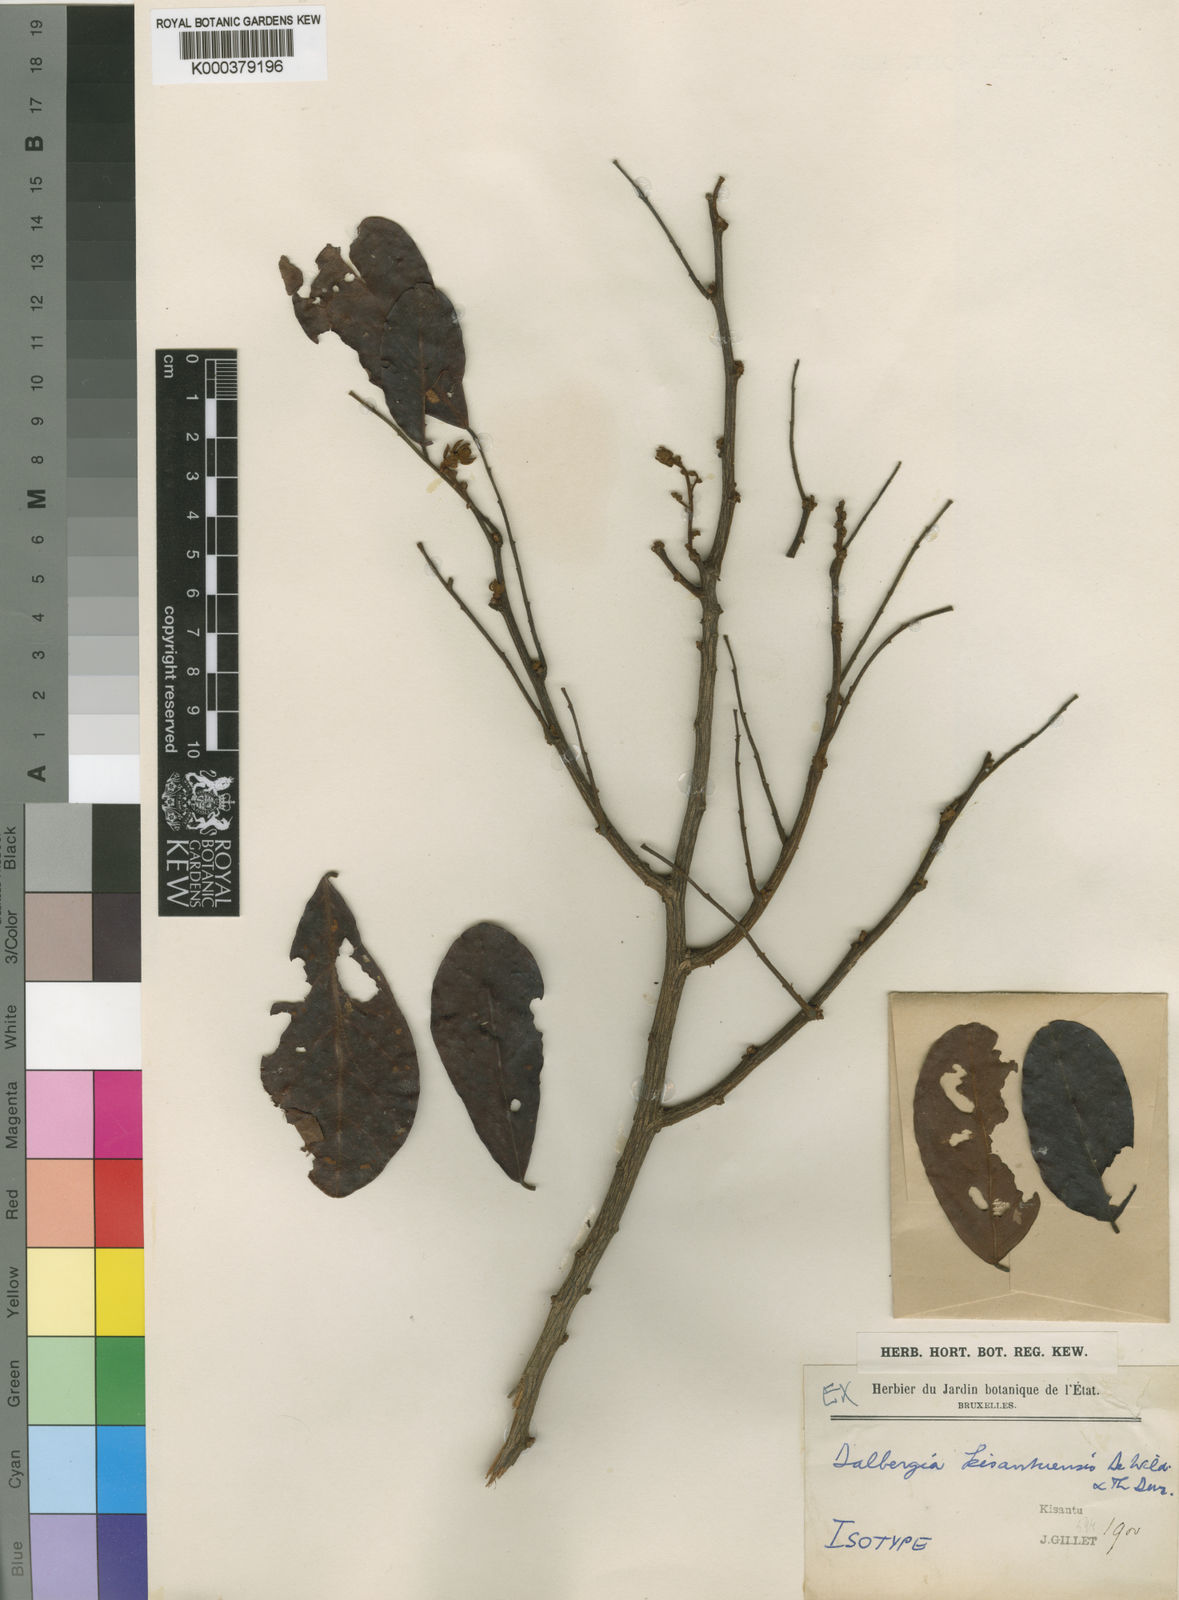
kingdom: Plantae
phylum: Tracheophyta
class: Magnoliopsida
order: Fabales
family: Fabaceae
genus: Dalbergia
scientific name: Dalbergia rufa
